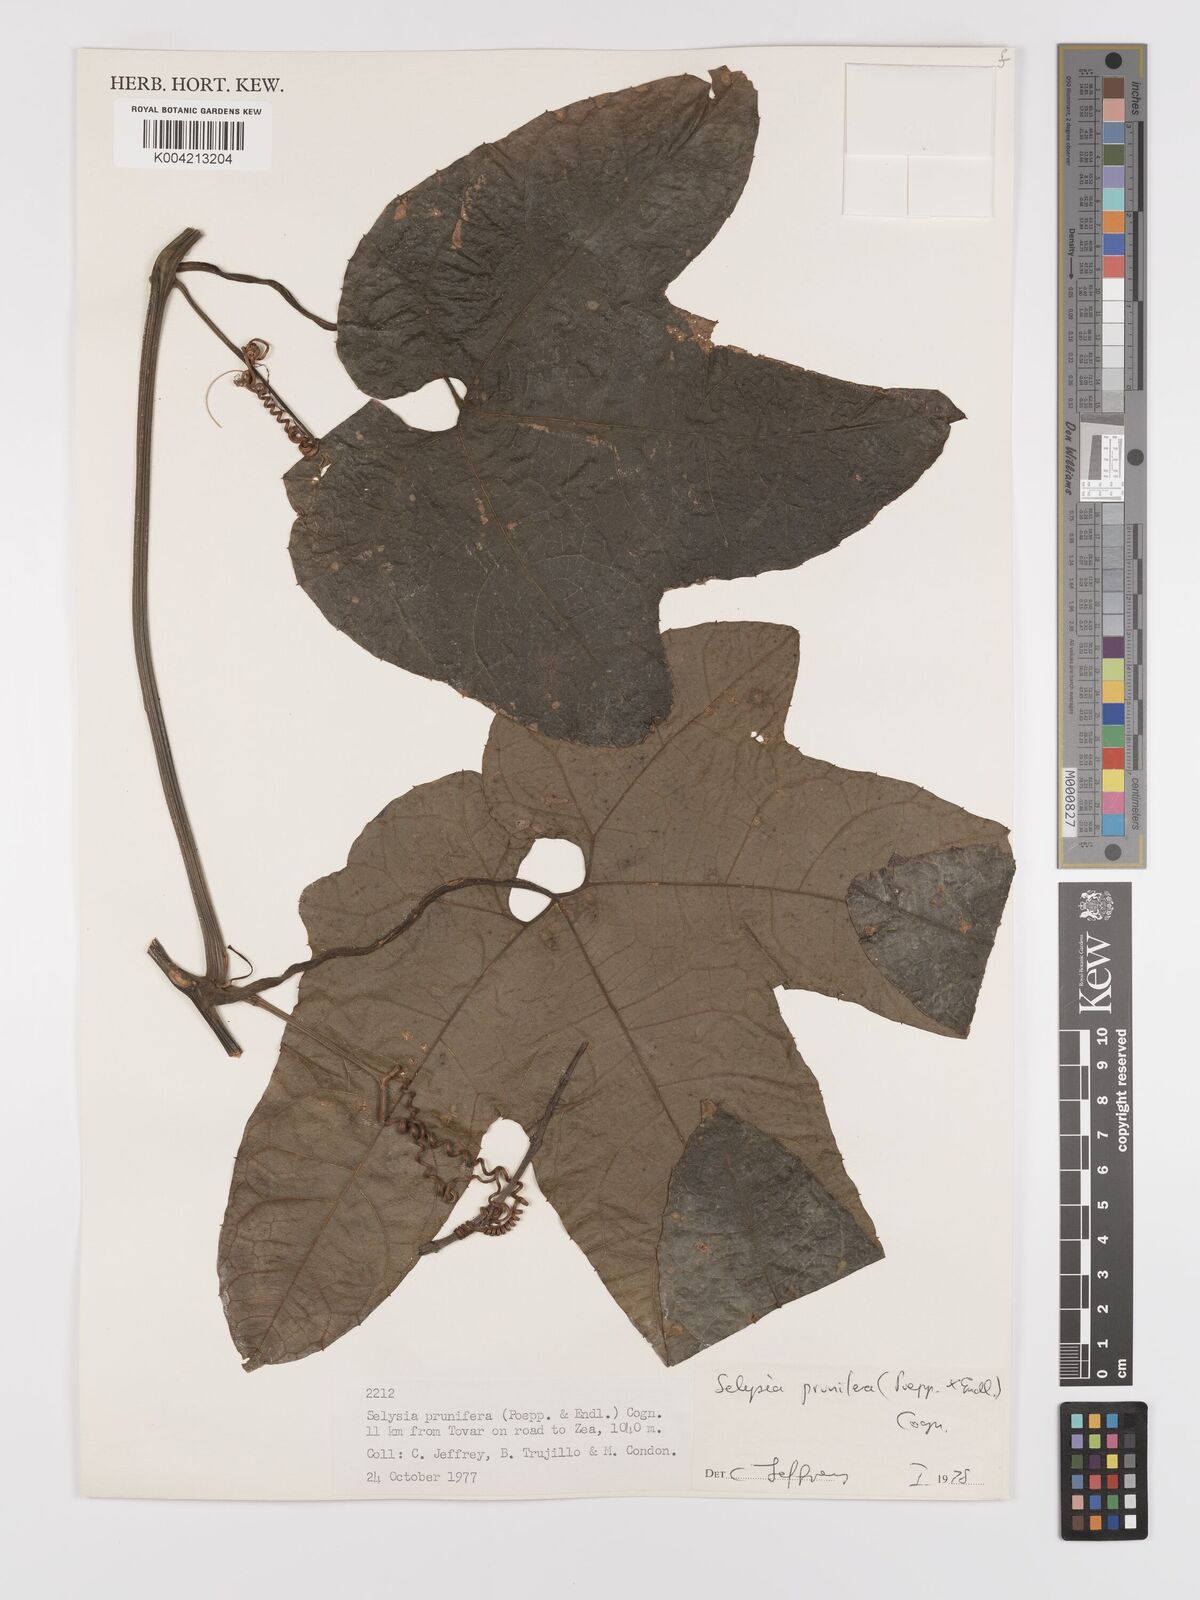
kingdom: Plantae
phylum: Tracheophyta
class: Magnoliopsida
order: Cucurbitales
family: Cucurbitaceae
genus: Cayaponia
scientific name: Cayaponia prunifera
